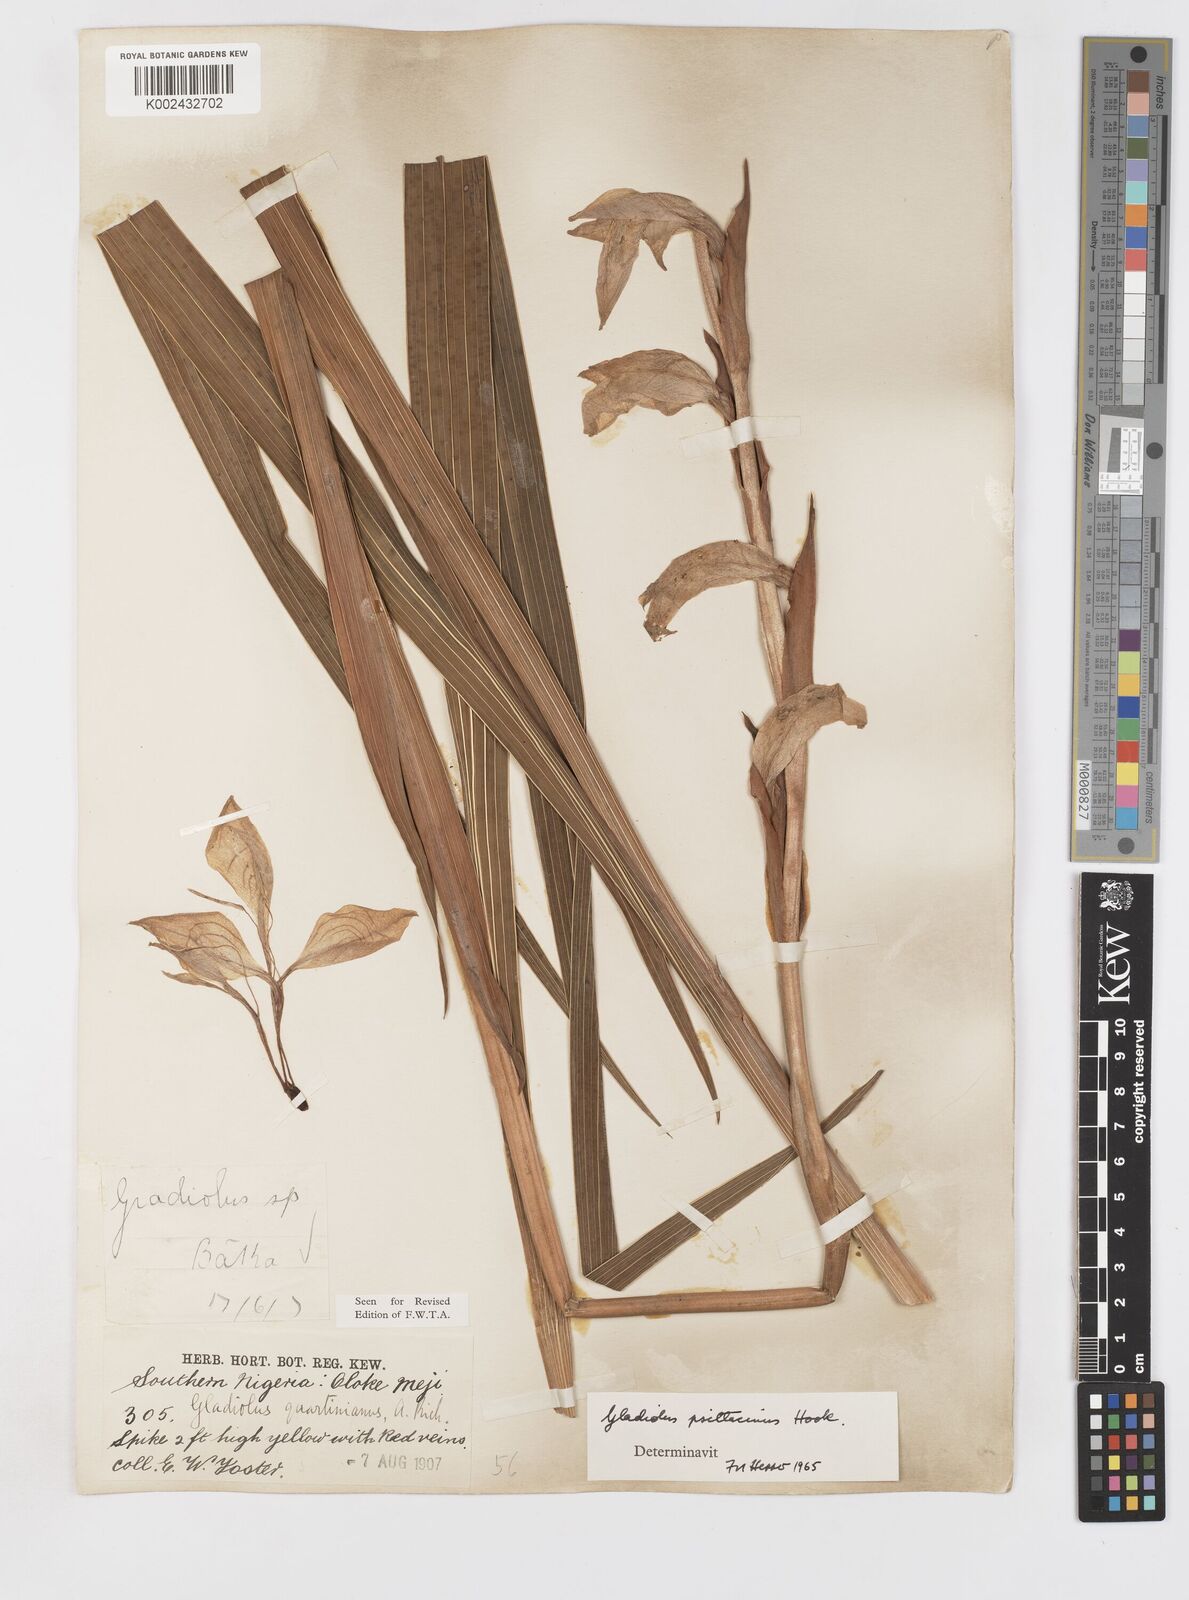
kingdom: Plantae
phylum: Tracheophyta
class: Liliopsida
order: Asparagales
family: Iridaceae
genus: Gladiolus
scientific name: Gladiolus dalenii
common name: Cornflag
